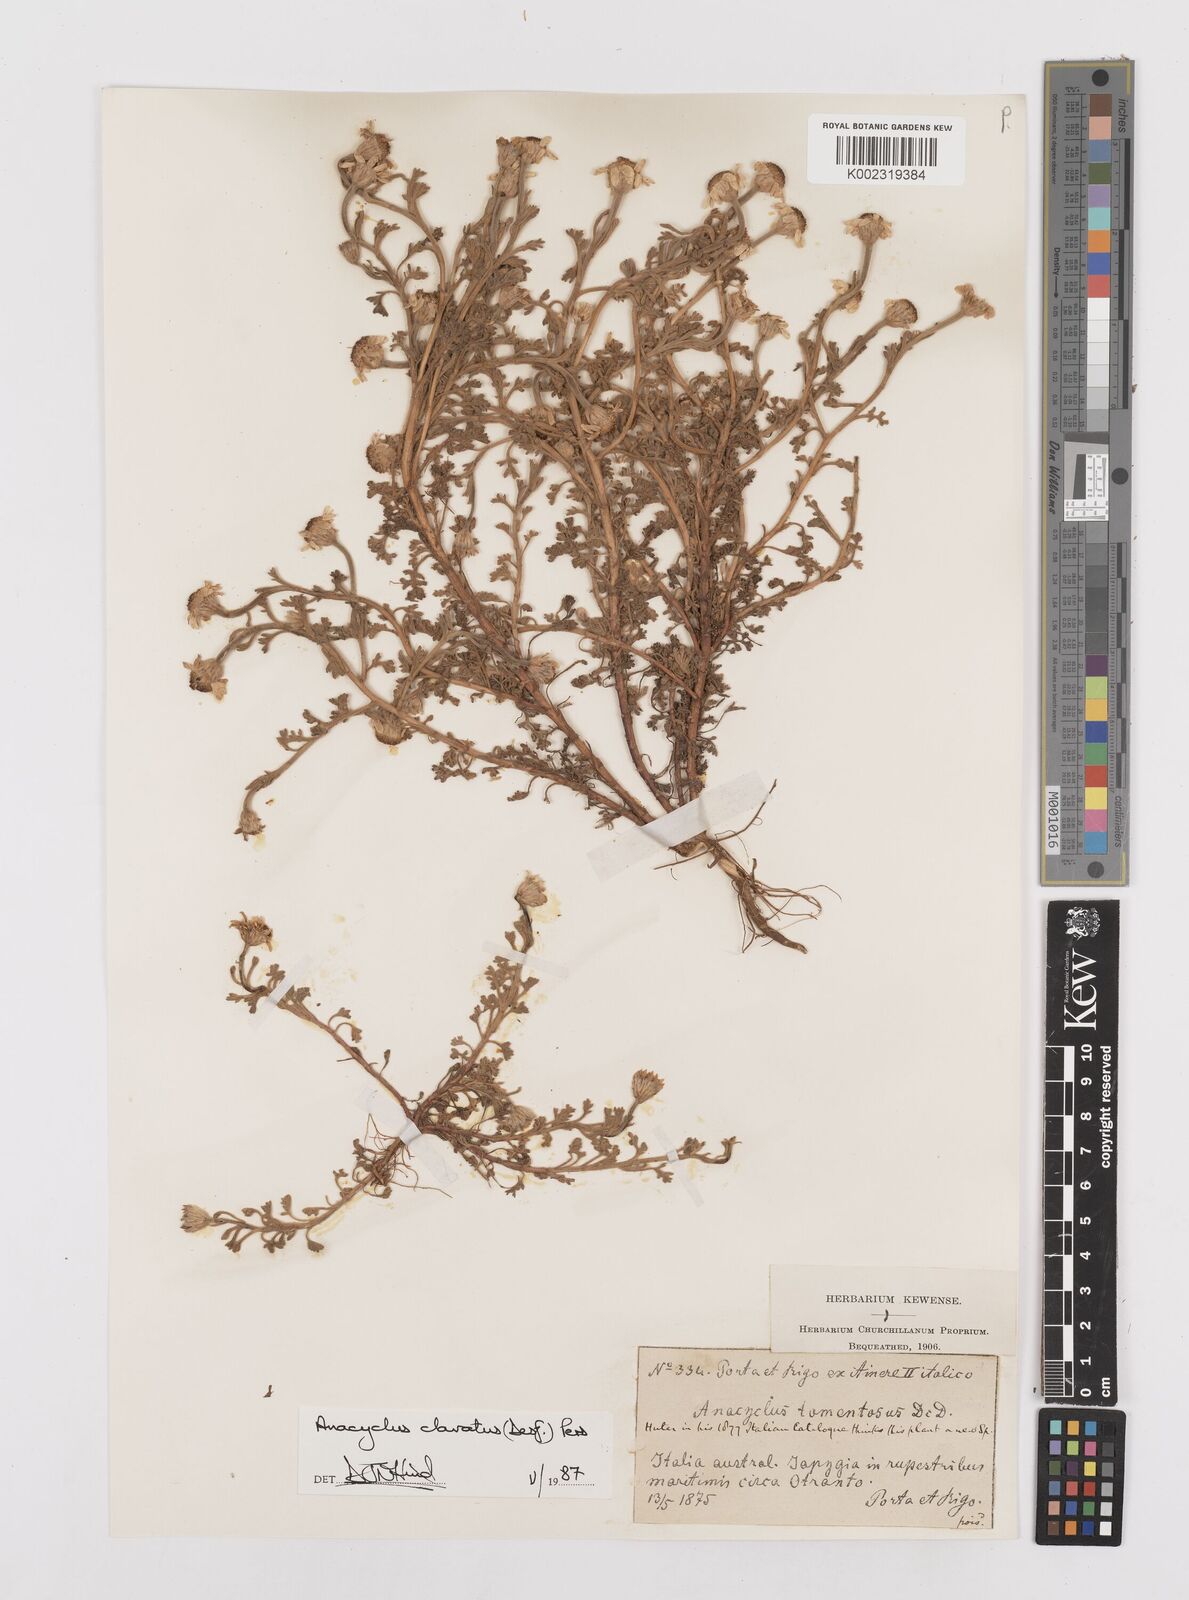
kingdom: Plantae
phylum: Tracheophyta
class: Magnoliopsida
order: Asterales
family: Asteraceae
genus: Anacyclus
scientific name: Anacyclus clavatus
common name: Whitebuttons
